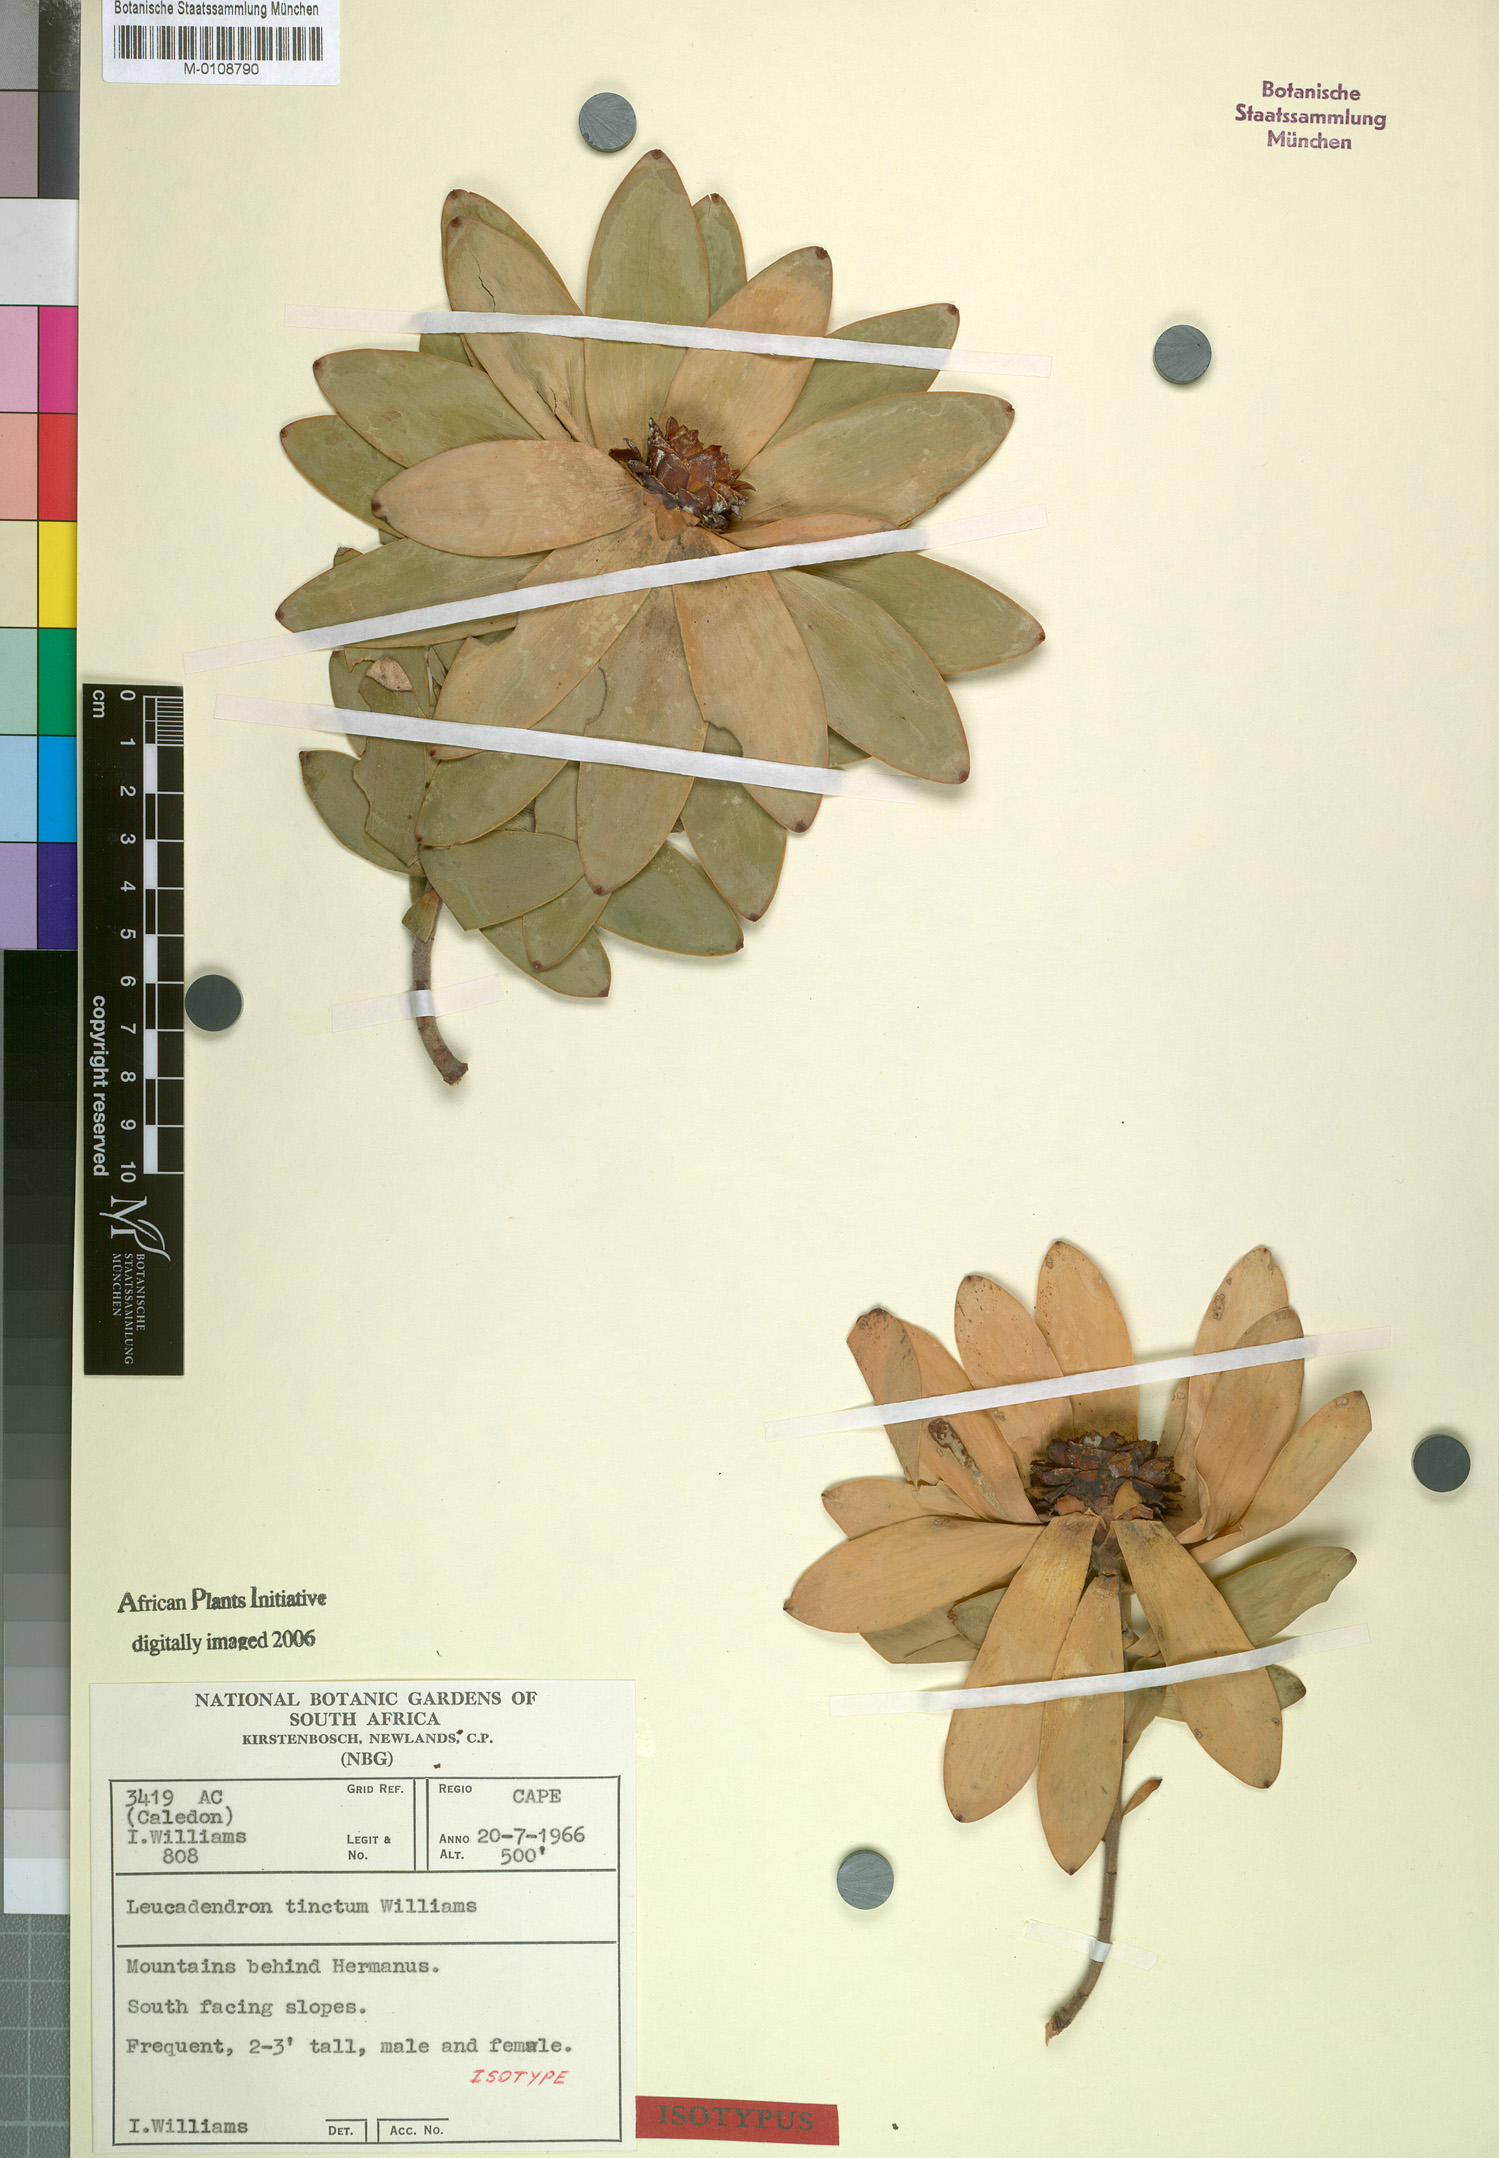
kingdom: Plantae
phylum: Tracheophyta
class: Magnoliopsida
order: Proteales
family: Proteaceae
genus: Leucadendron
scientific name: Leucadendron tinctum
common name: Spicy conebush
